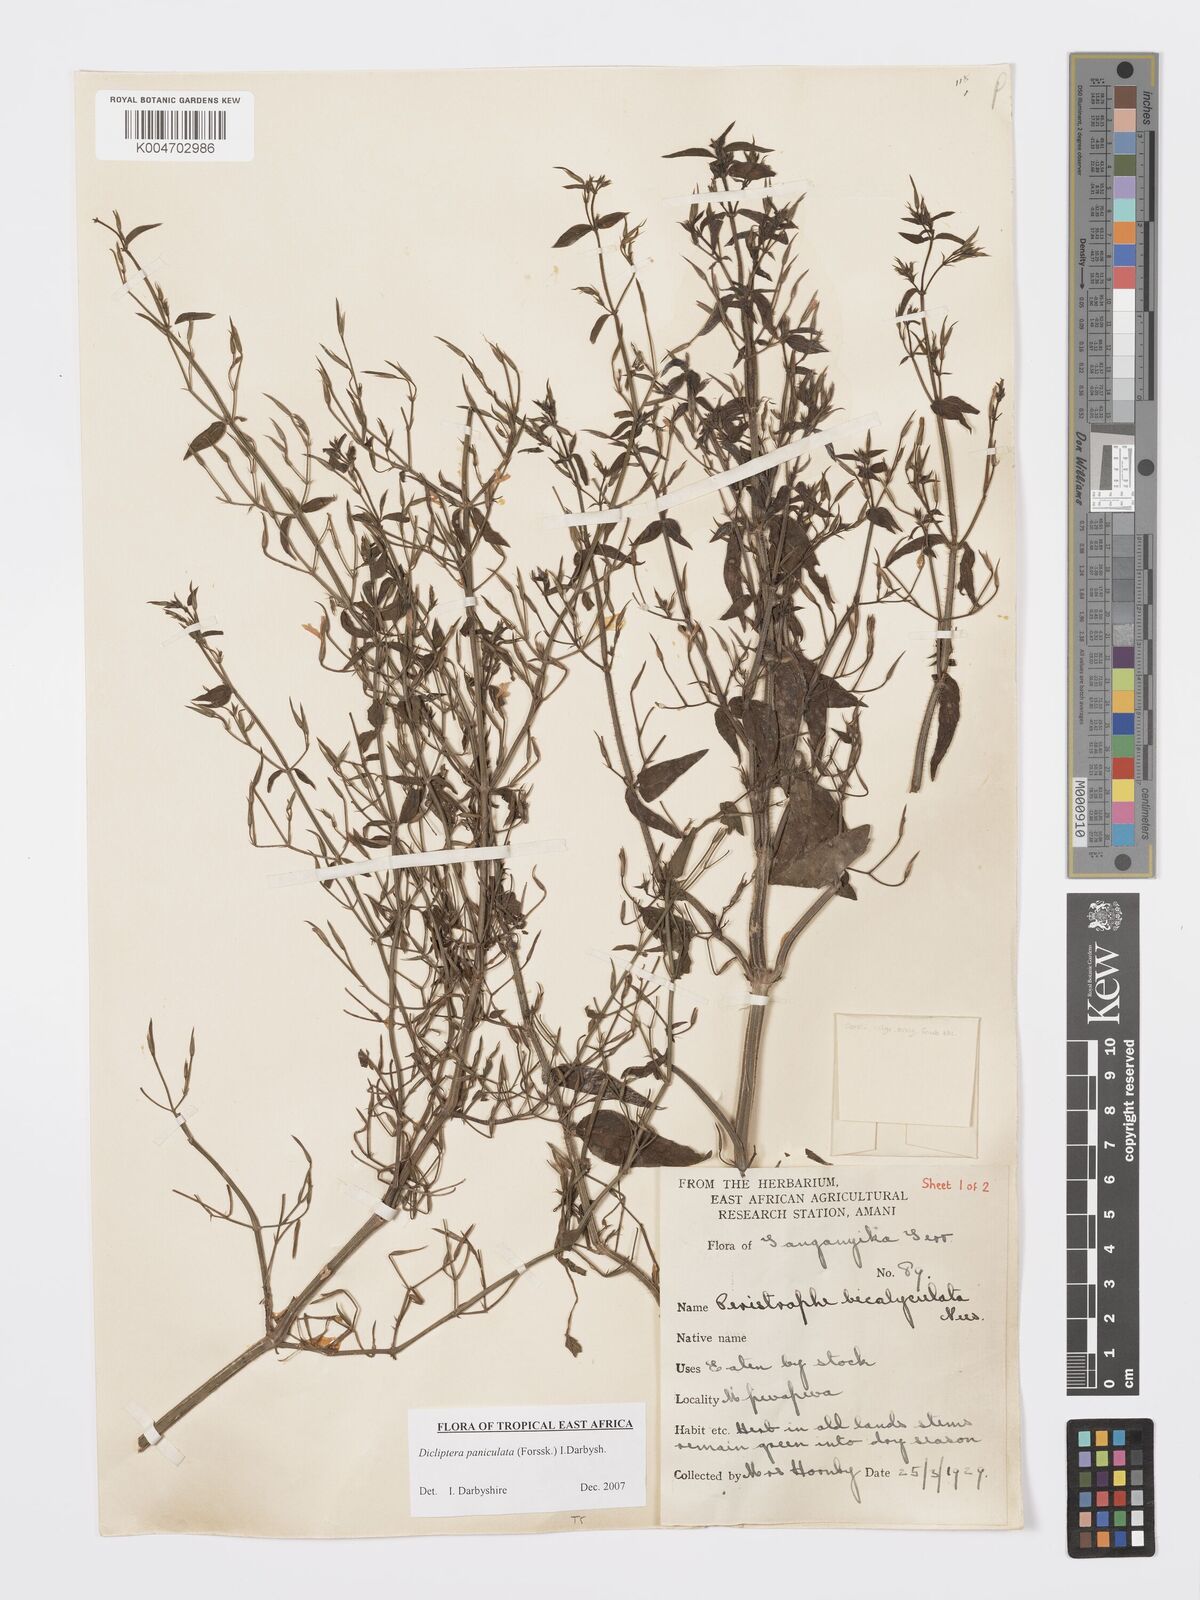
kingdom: Plantae
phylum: Tracheophyta
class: Magnoliopsida
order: Lamiales
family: Acanthaceae
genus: Dicliptera
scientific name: Dicliptera paniculata
